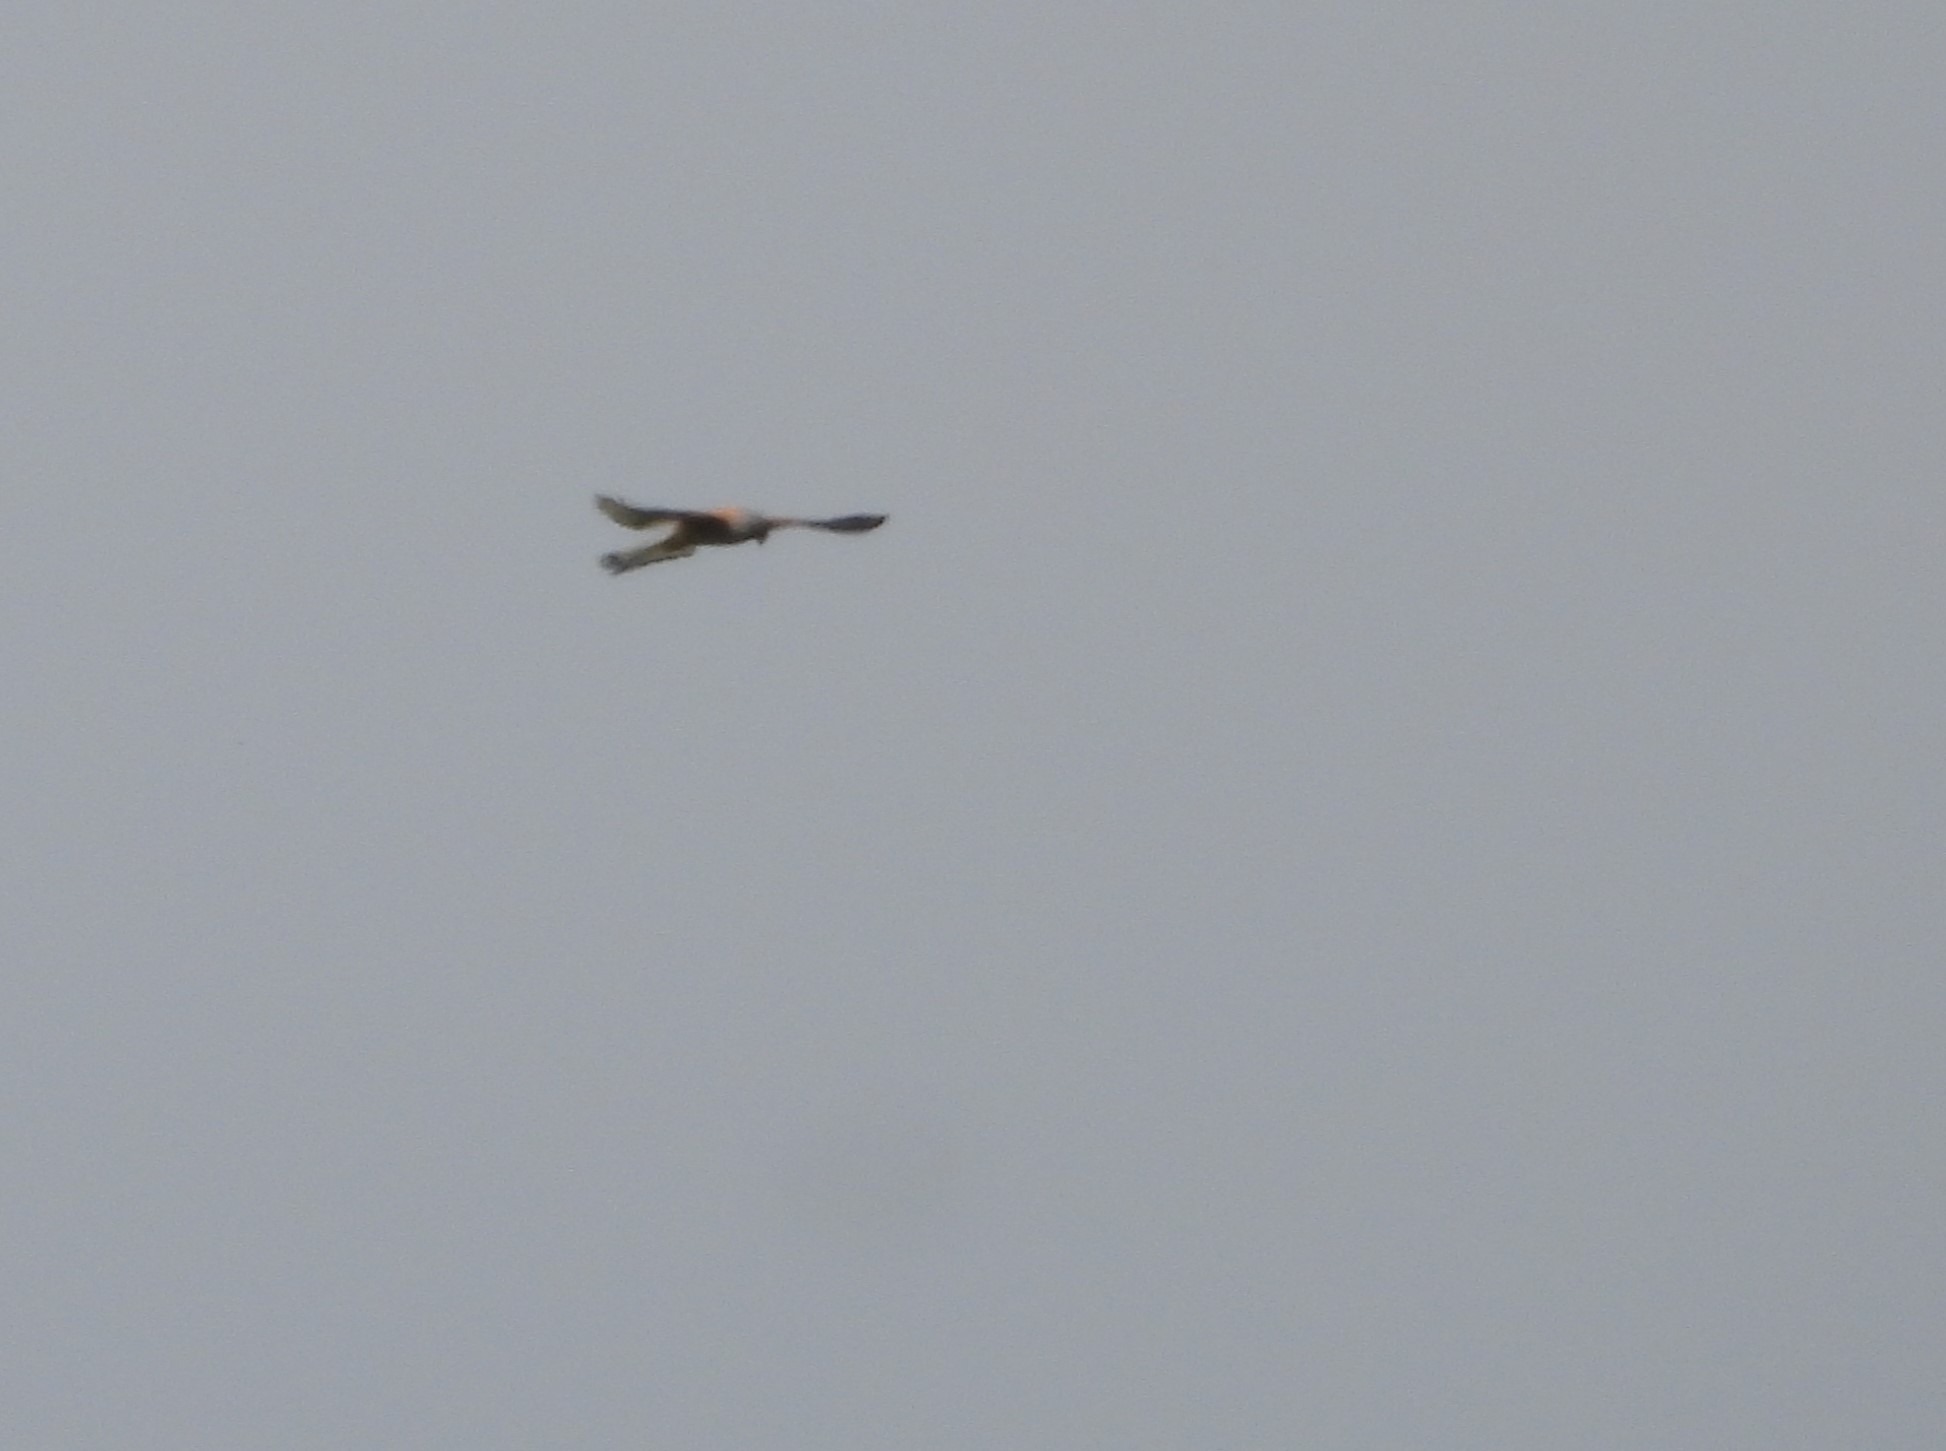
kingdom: Animalia
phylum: Chordata
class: Aves
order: Falconiformes
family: Falconidae
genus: Falco
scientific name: Falco tinnunculus
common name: Tårnfalk
